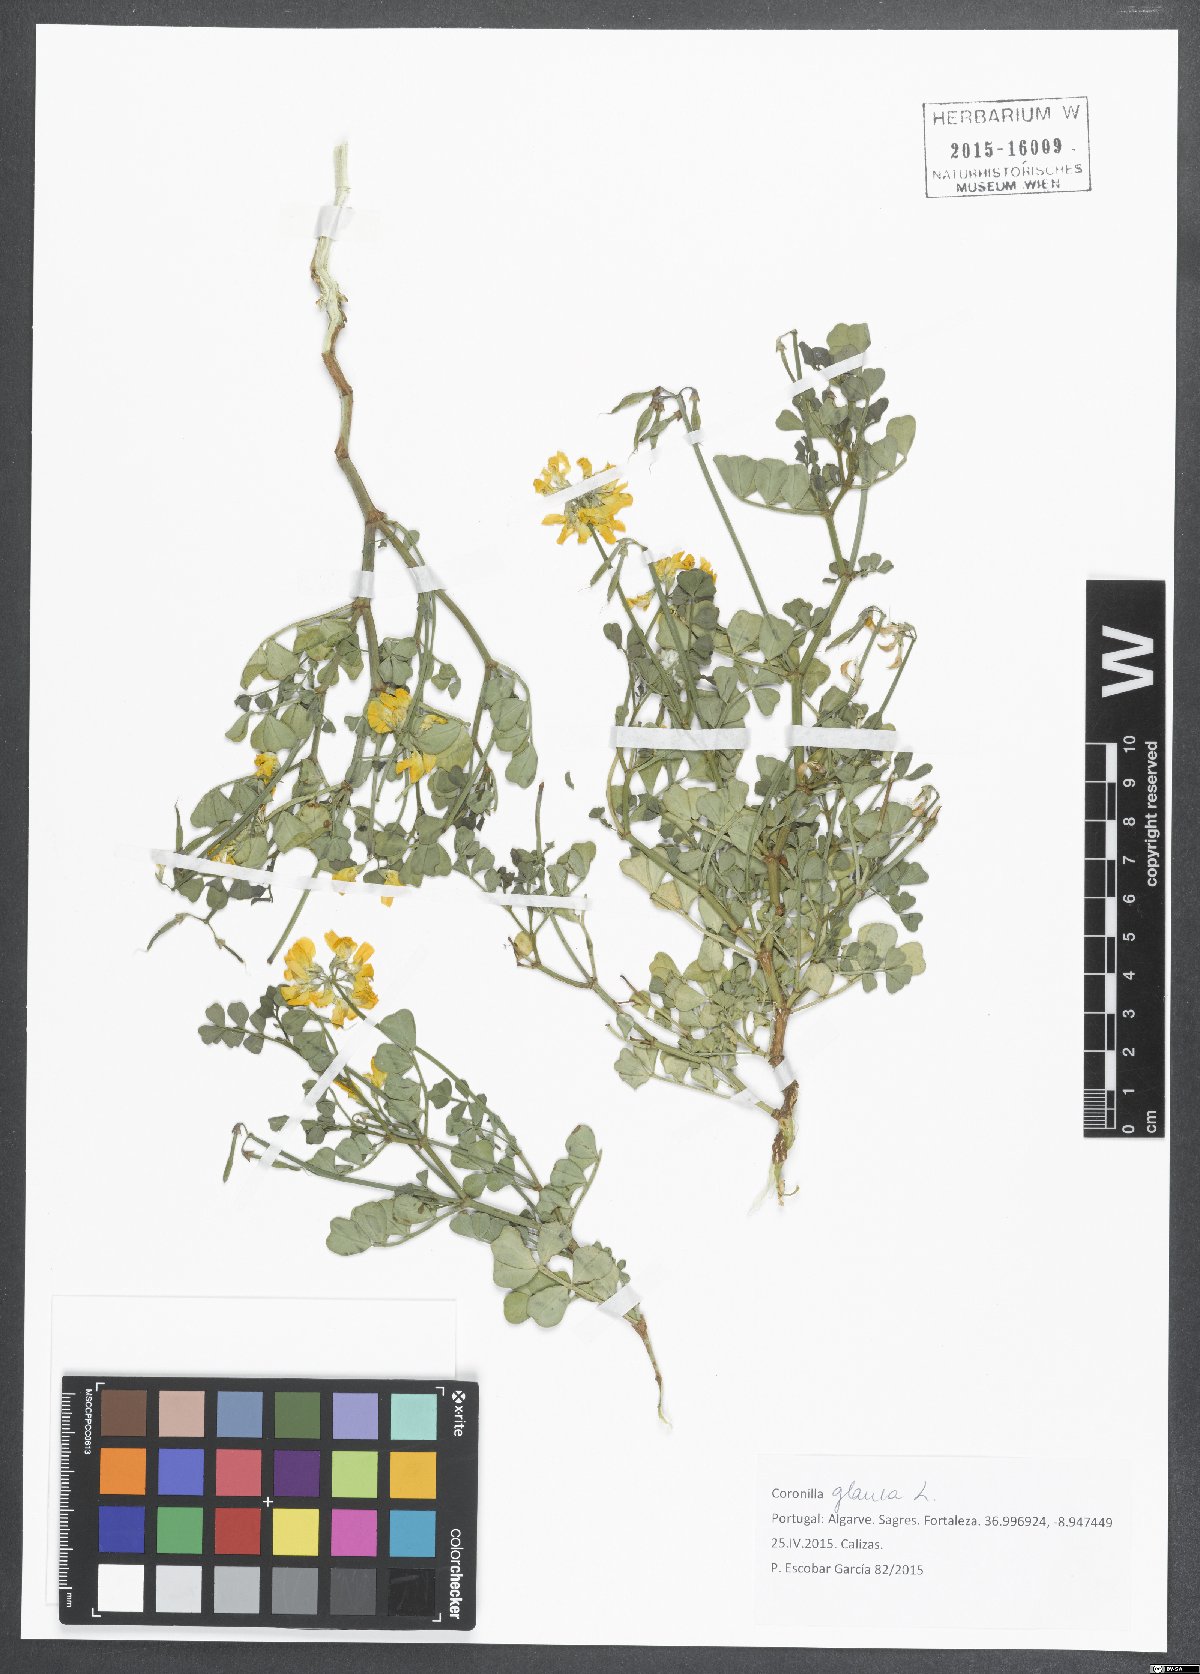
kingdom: Plantae
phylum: Tracheophyta
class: Magnoliopsida
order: Fabales
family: Fabaceae
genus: Coronilla
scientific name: Coronilla valentina
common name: Shrubby scorpion-vetch
